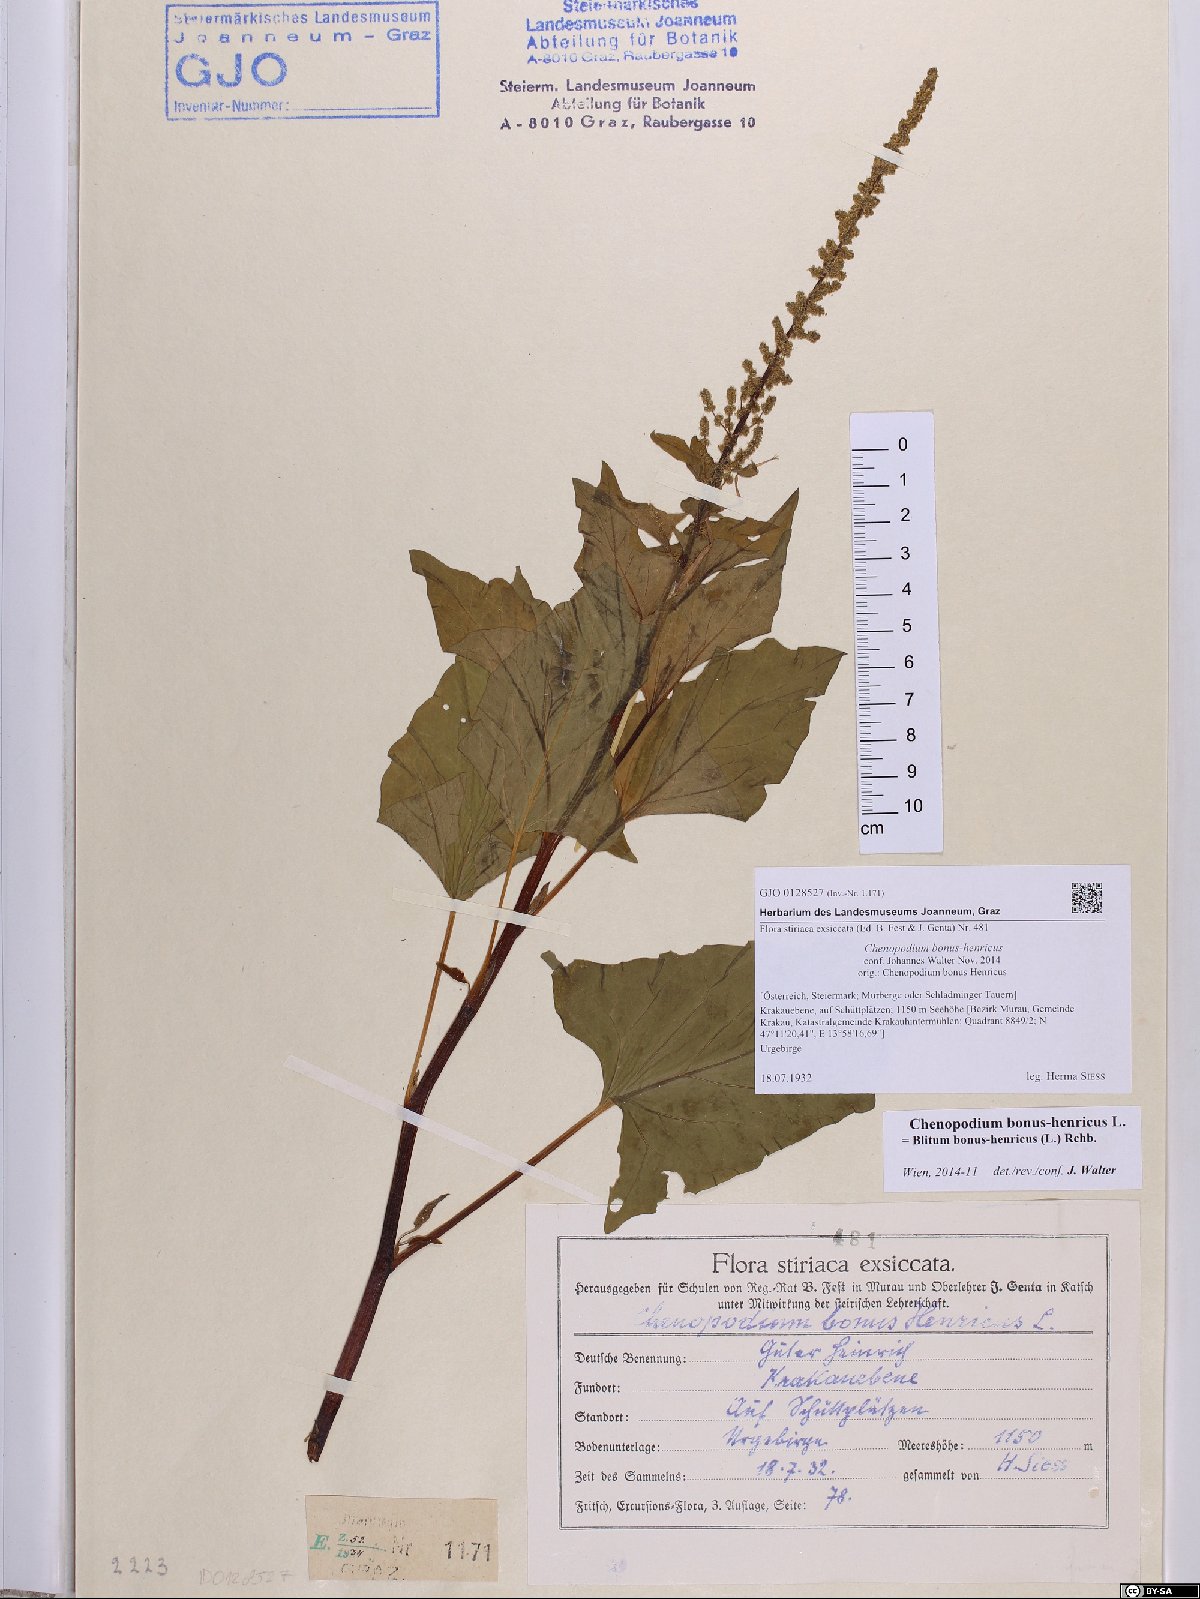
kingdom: Plantae
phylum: Tracheophyta
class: Magnoliopsida
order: Caryophyllales
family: Amaranthaceae
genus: Blitum
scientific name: Blitum bonus-henricus
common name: Good king henry
